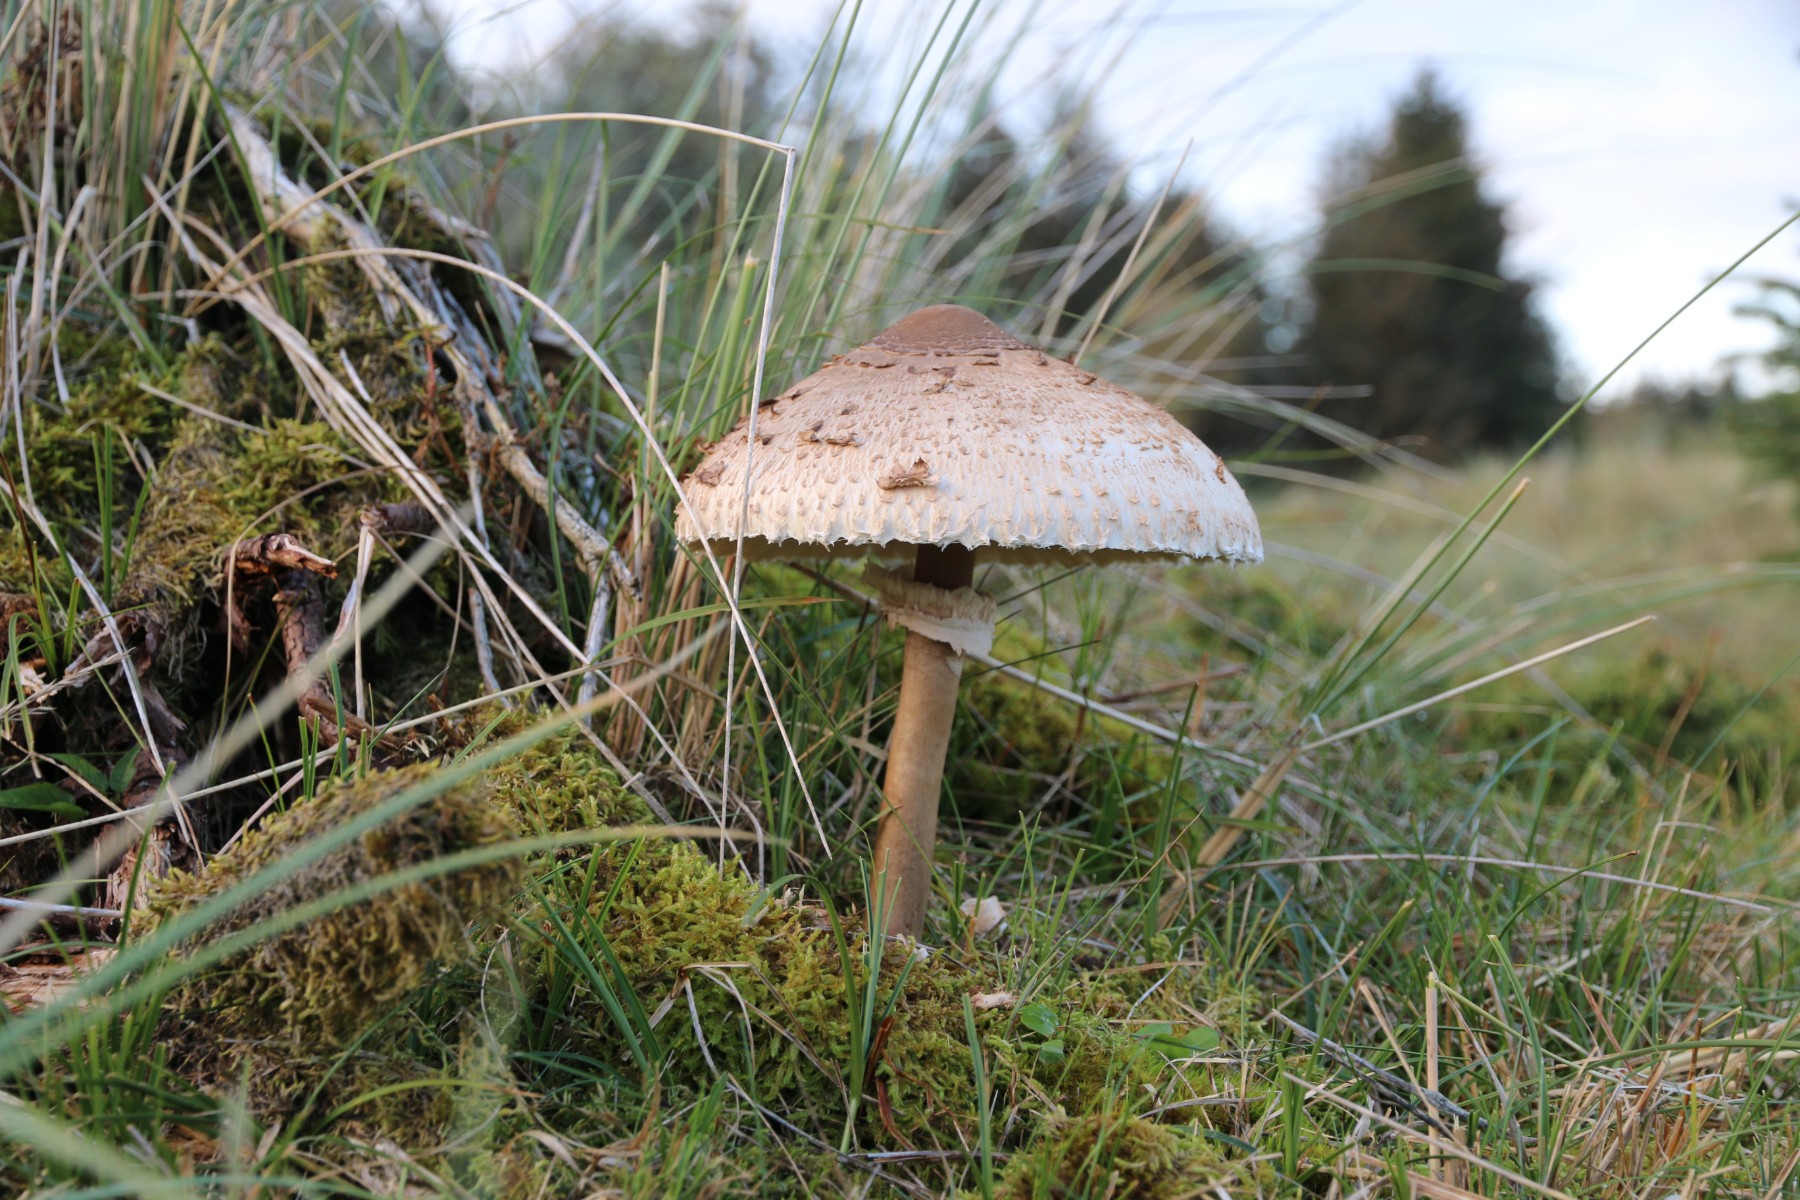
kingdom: Fungi
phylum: Basidiomycota
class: Agaricomycetes
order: Agaricales
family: Agaricaceae
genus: Macrolepiota
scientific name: Macrolepiota procera
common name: stor kæmpeparasolhat
